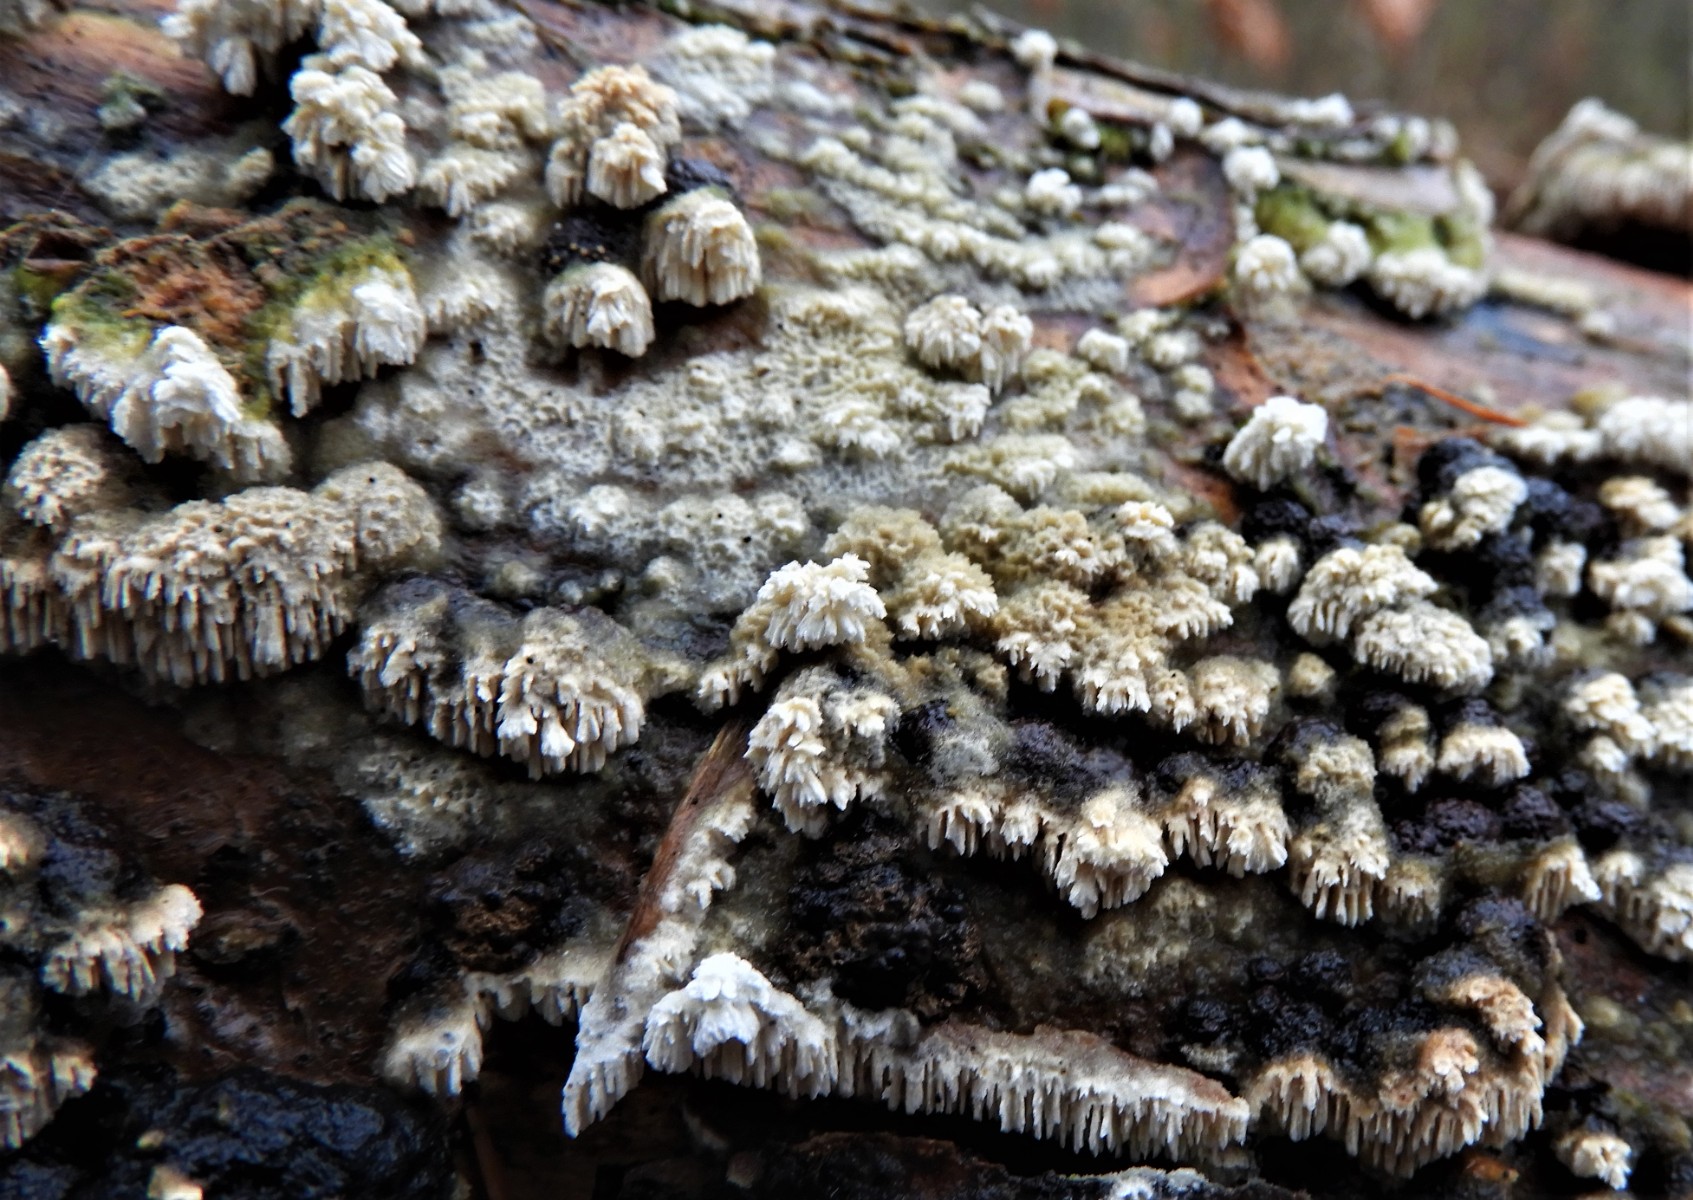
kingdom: Fungi
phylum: Basidiomycota
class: Agaricomycetes
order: Hymenochaetales
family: Schizoporaceae
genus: Schizopora
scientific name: Schizopora paradoxa
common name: hvid tandsvamp
